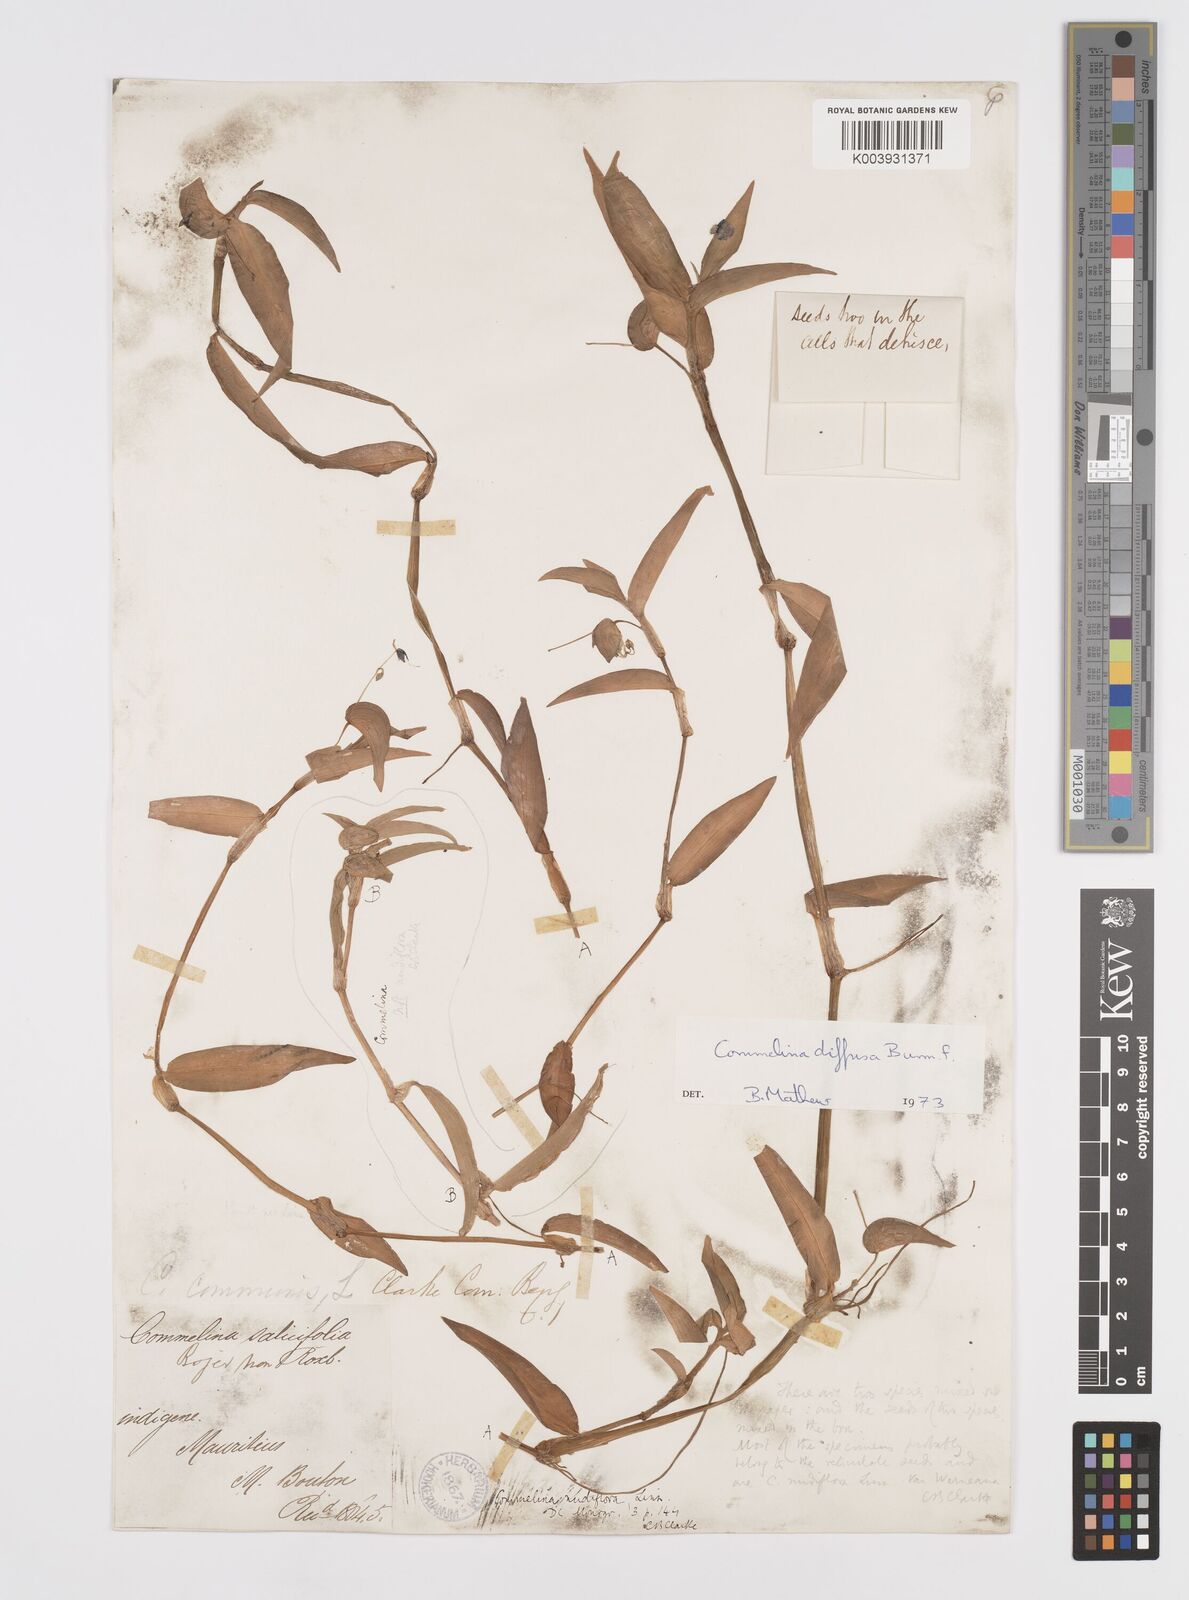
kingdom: Plantae
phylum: Tracheophyta
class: Liliopsida
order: Commelinales
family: Commelinaceae
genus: Murdannia
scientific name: Murdannia nudiflora
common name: Nakedstem dewflower
